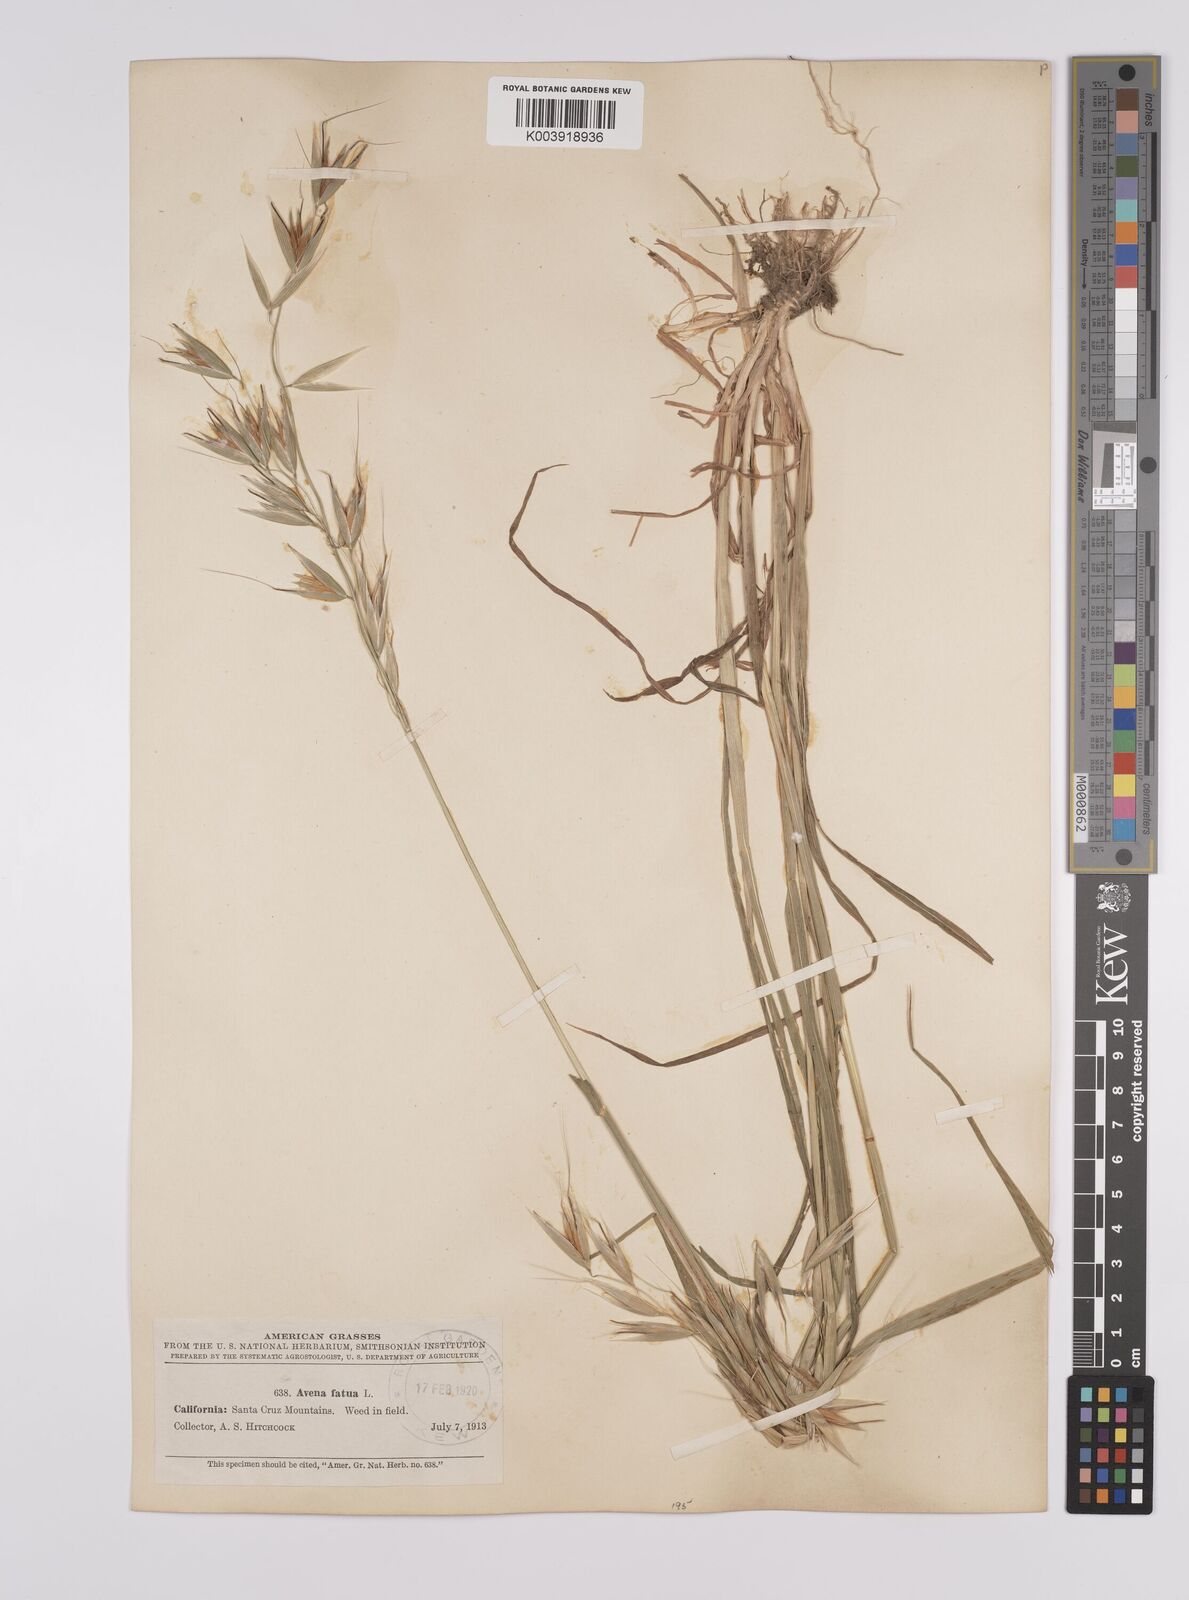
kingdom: Plantae
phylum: Tracheophyta
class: Liliopsida
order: Poales
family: Poaceae
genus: Avena
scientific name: Avena fatua
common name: Wild oat
